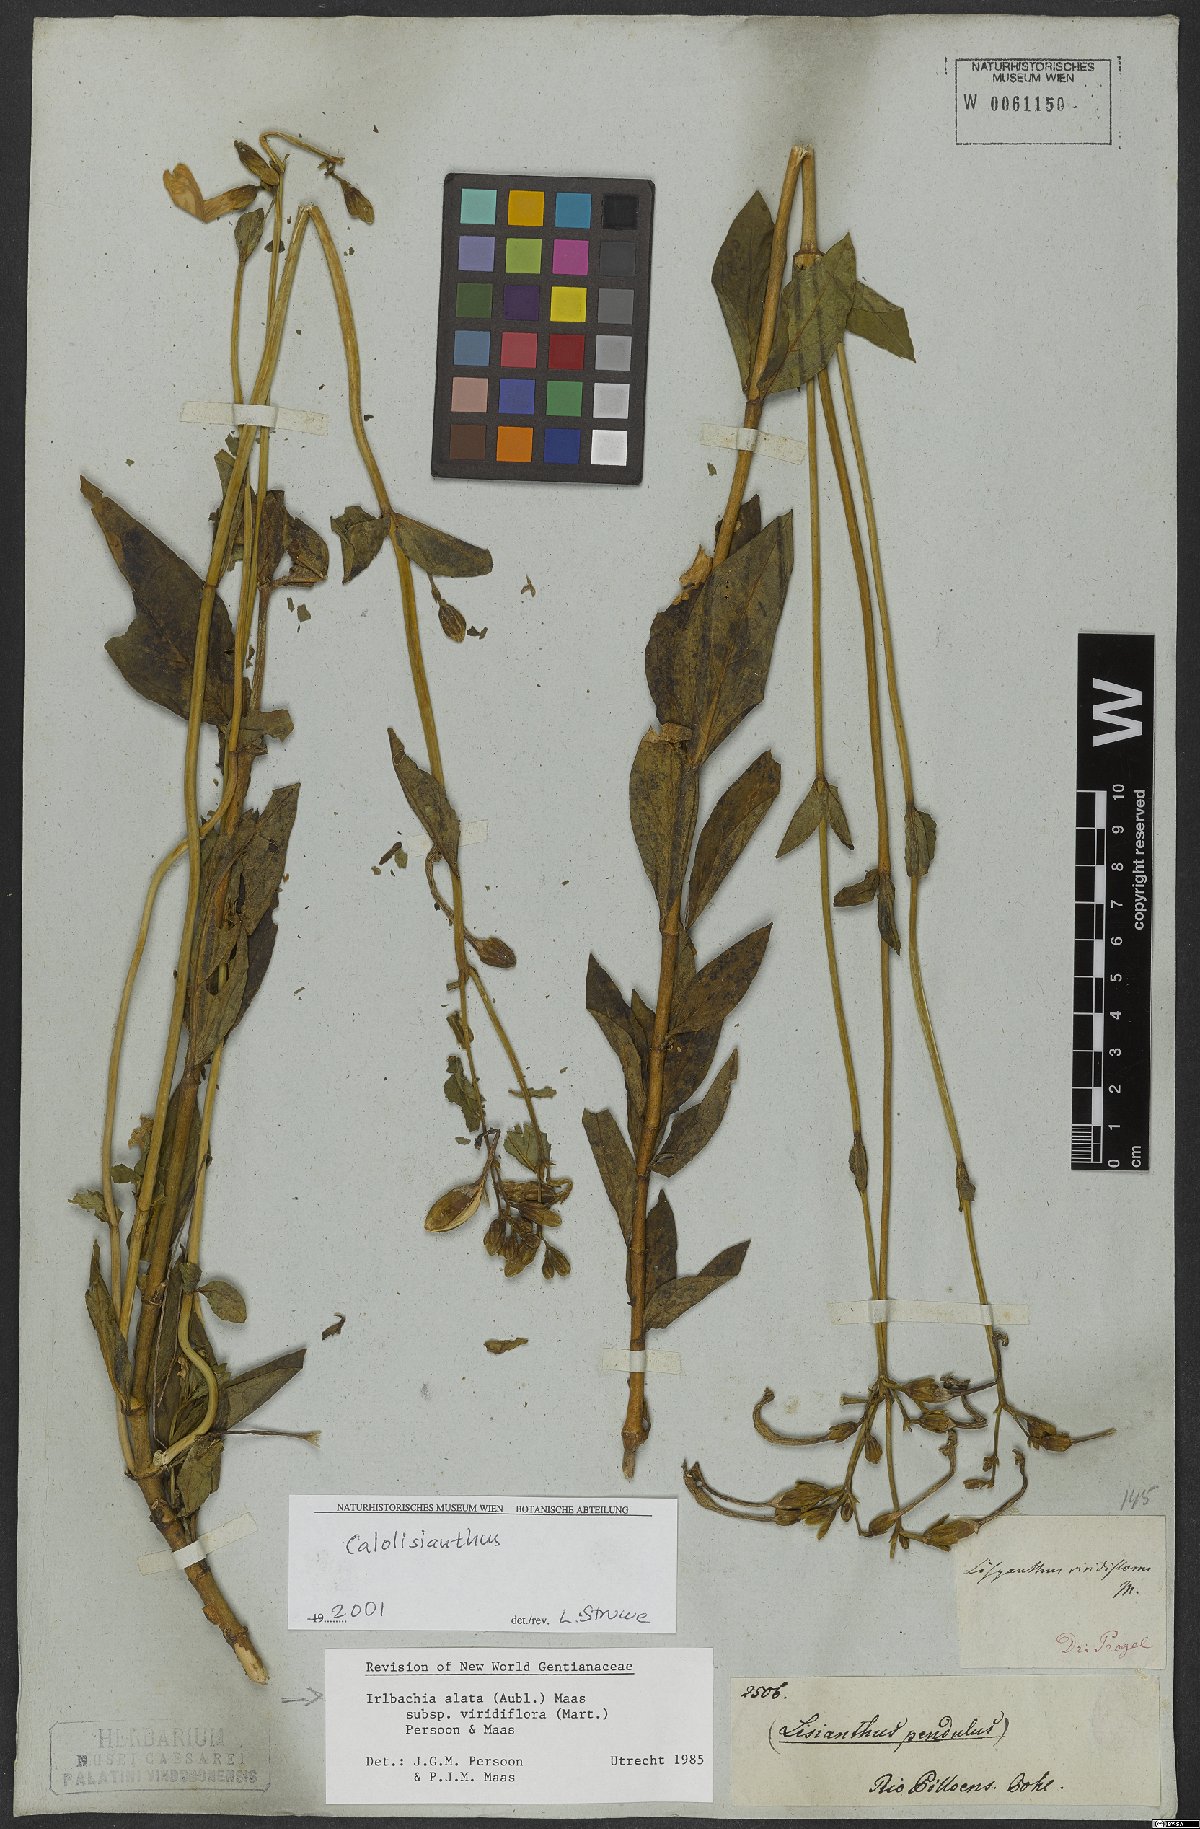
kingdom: Plantae
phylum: Tracheophyta
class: Magnoliopsida
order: Gentianales
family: Gentianaceae
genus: Chelonanthus
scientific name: Chelonanthus viridiflorus
